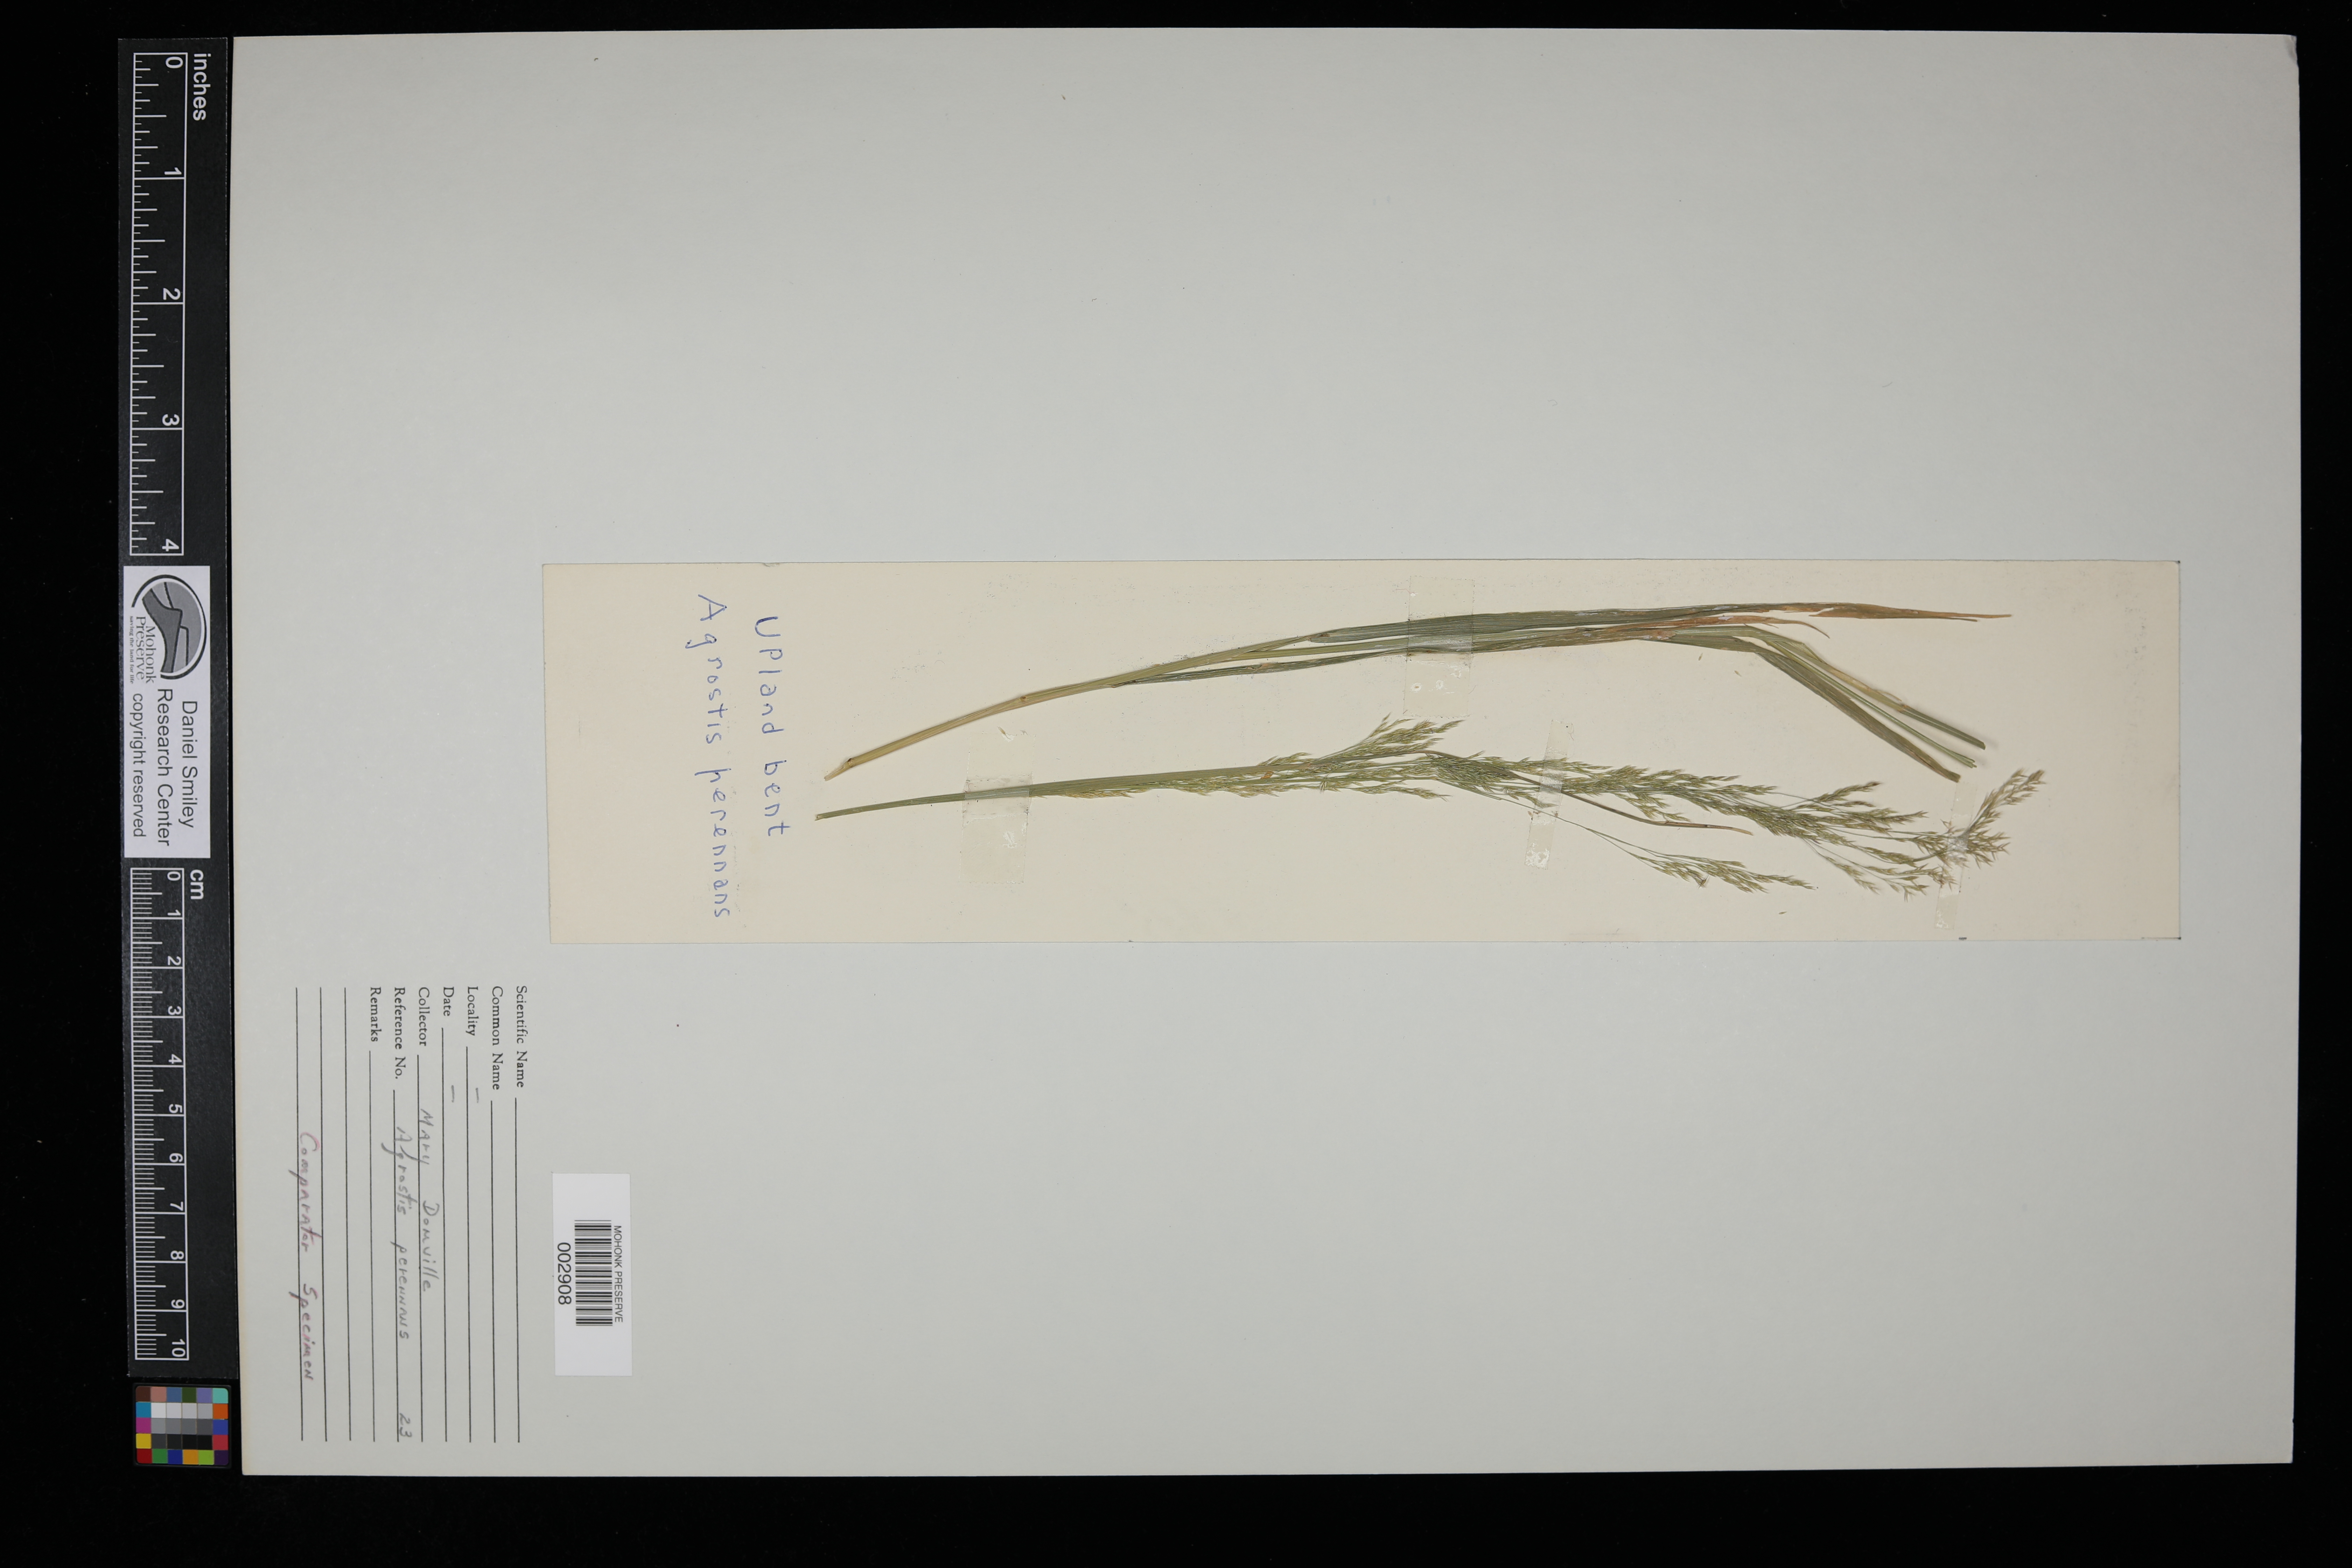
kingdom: Plantae
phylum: Tracheophyta
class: Liliopsida
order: Poales
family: Poaceae
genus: Agrostis
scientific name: Agrostis perennans
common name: Autumn bent
